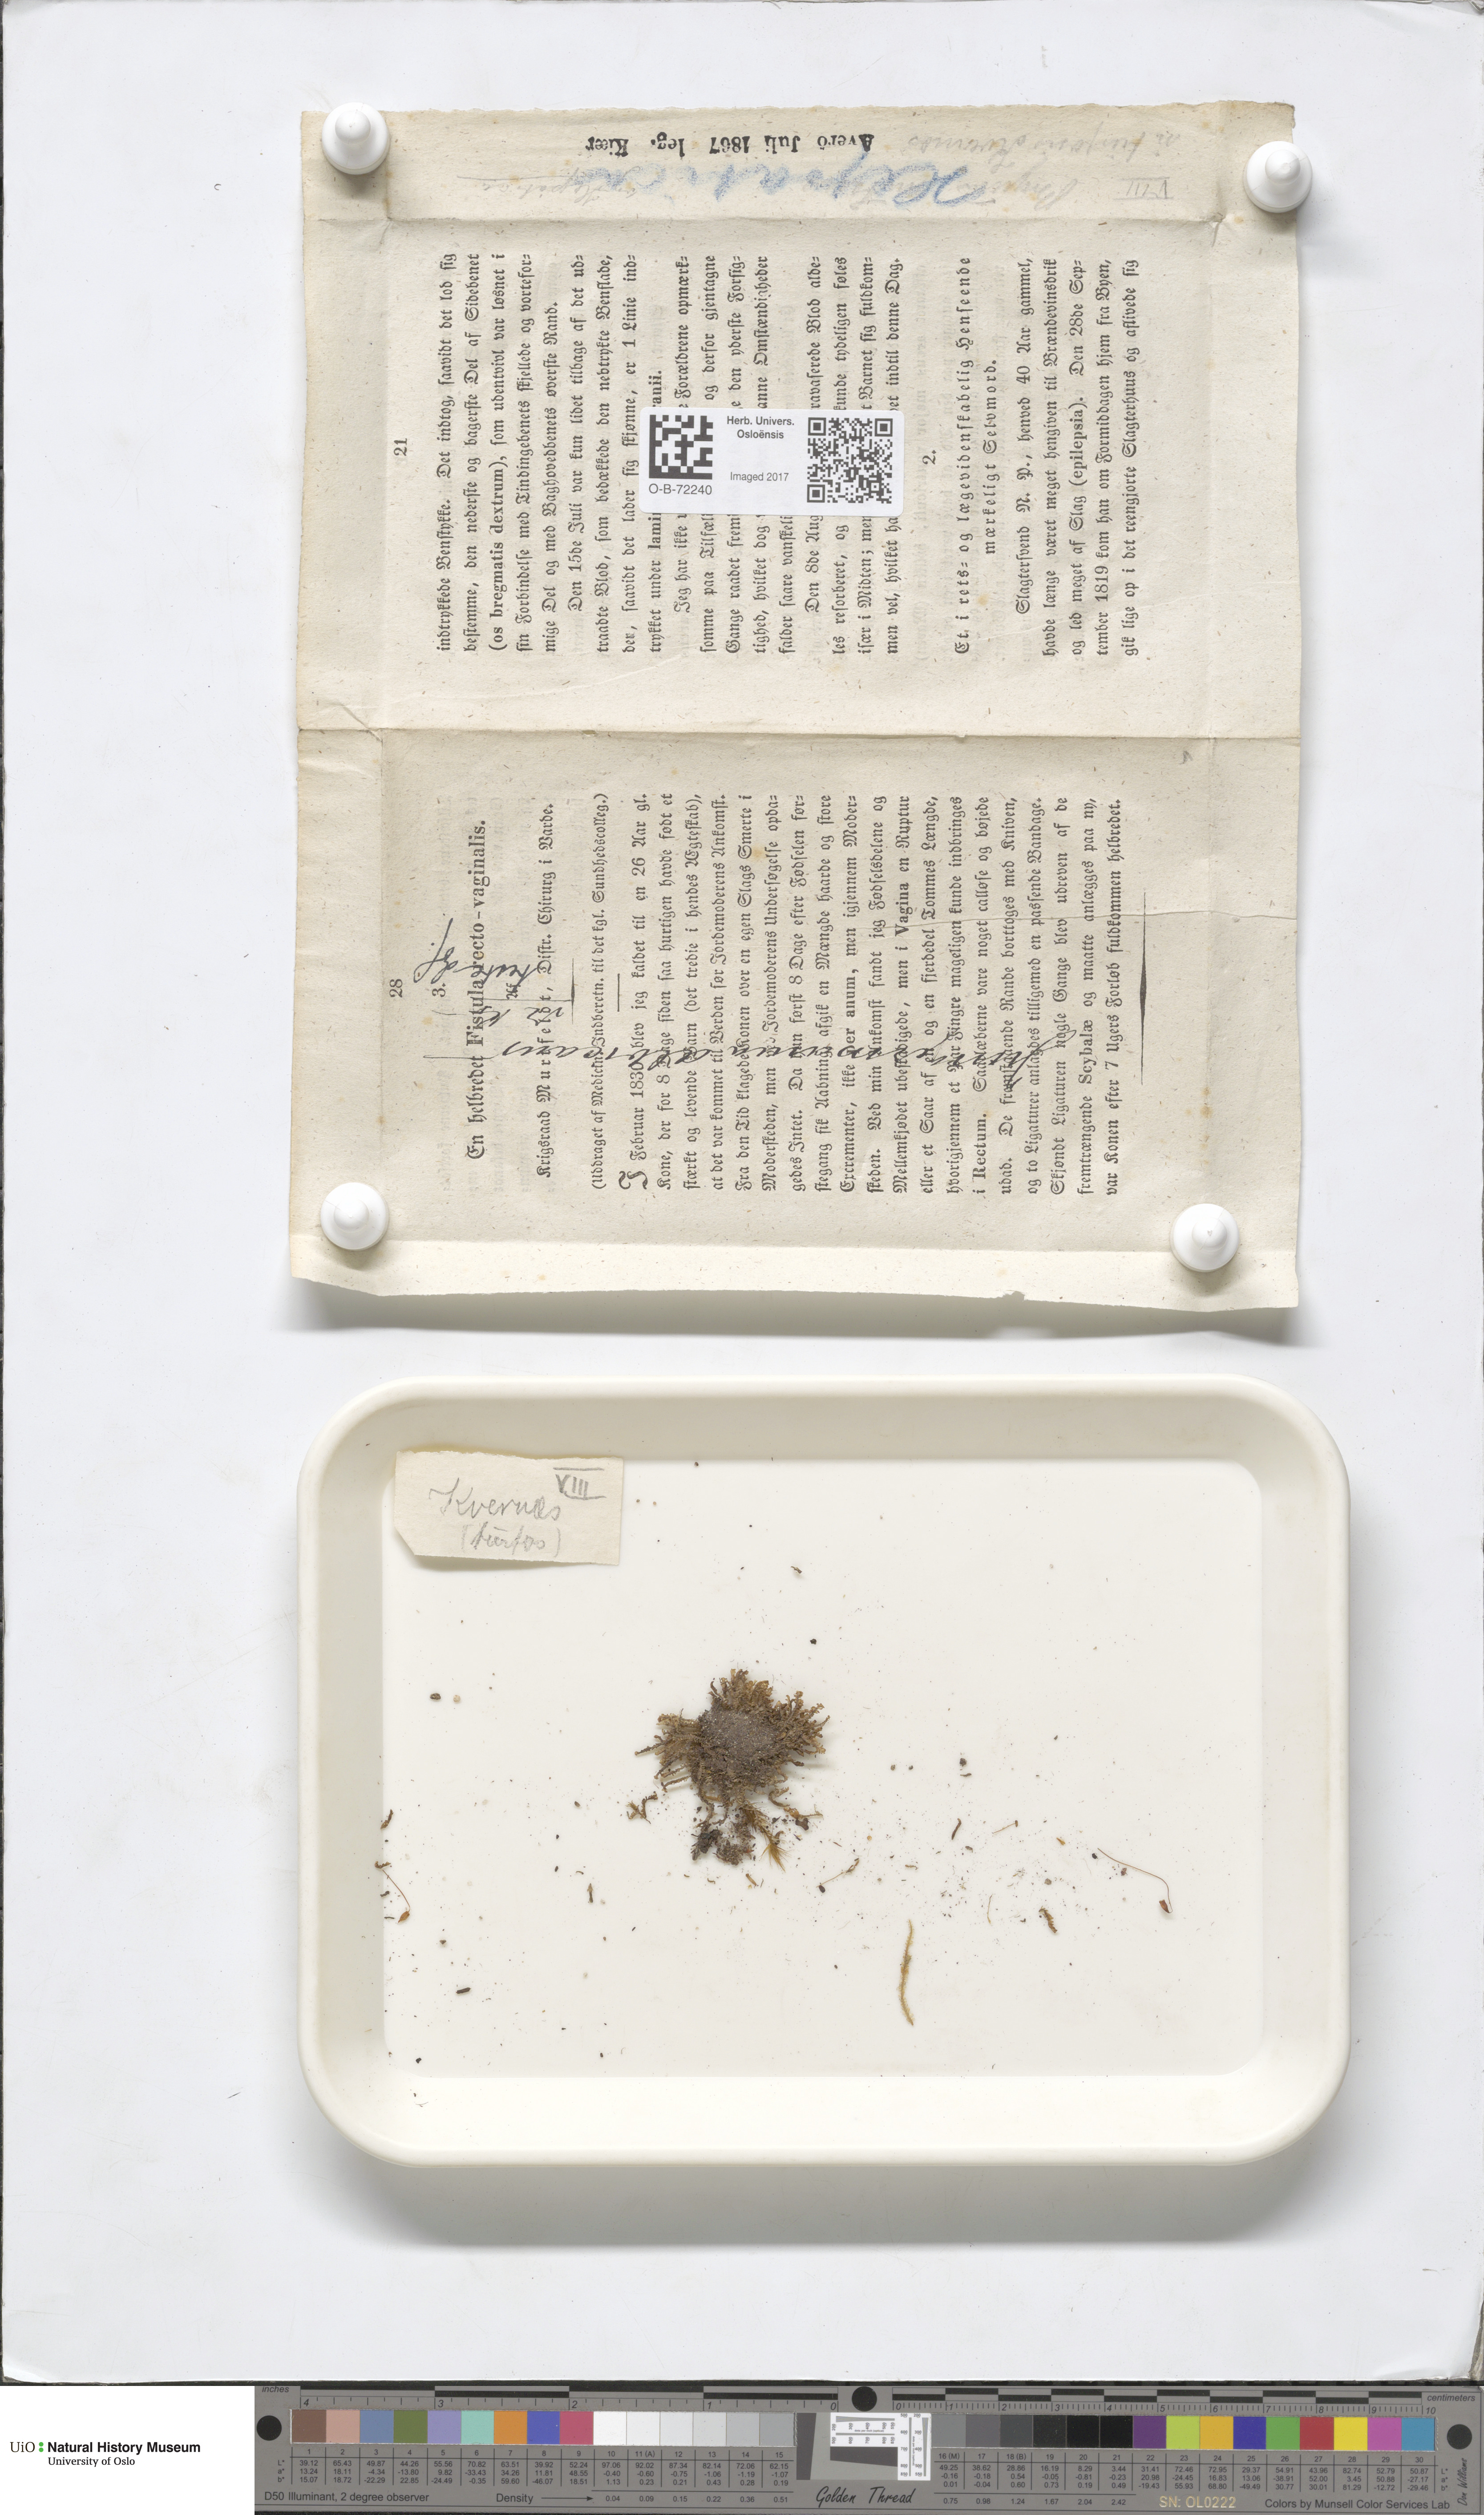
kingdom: Plantae
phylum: Marchantiophyta
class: Jungermanniopsida
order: Jungermanniales
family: Scapaniaceae
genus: Diplophyllum
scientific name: Diplophyllum albicans
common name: White earwort
